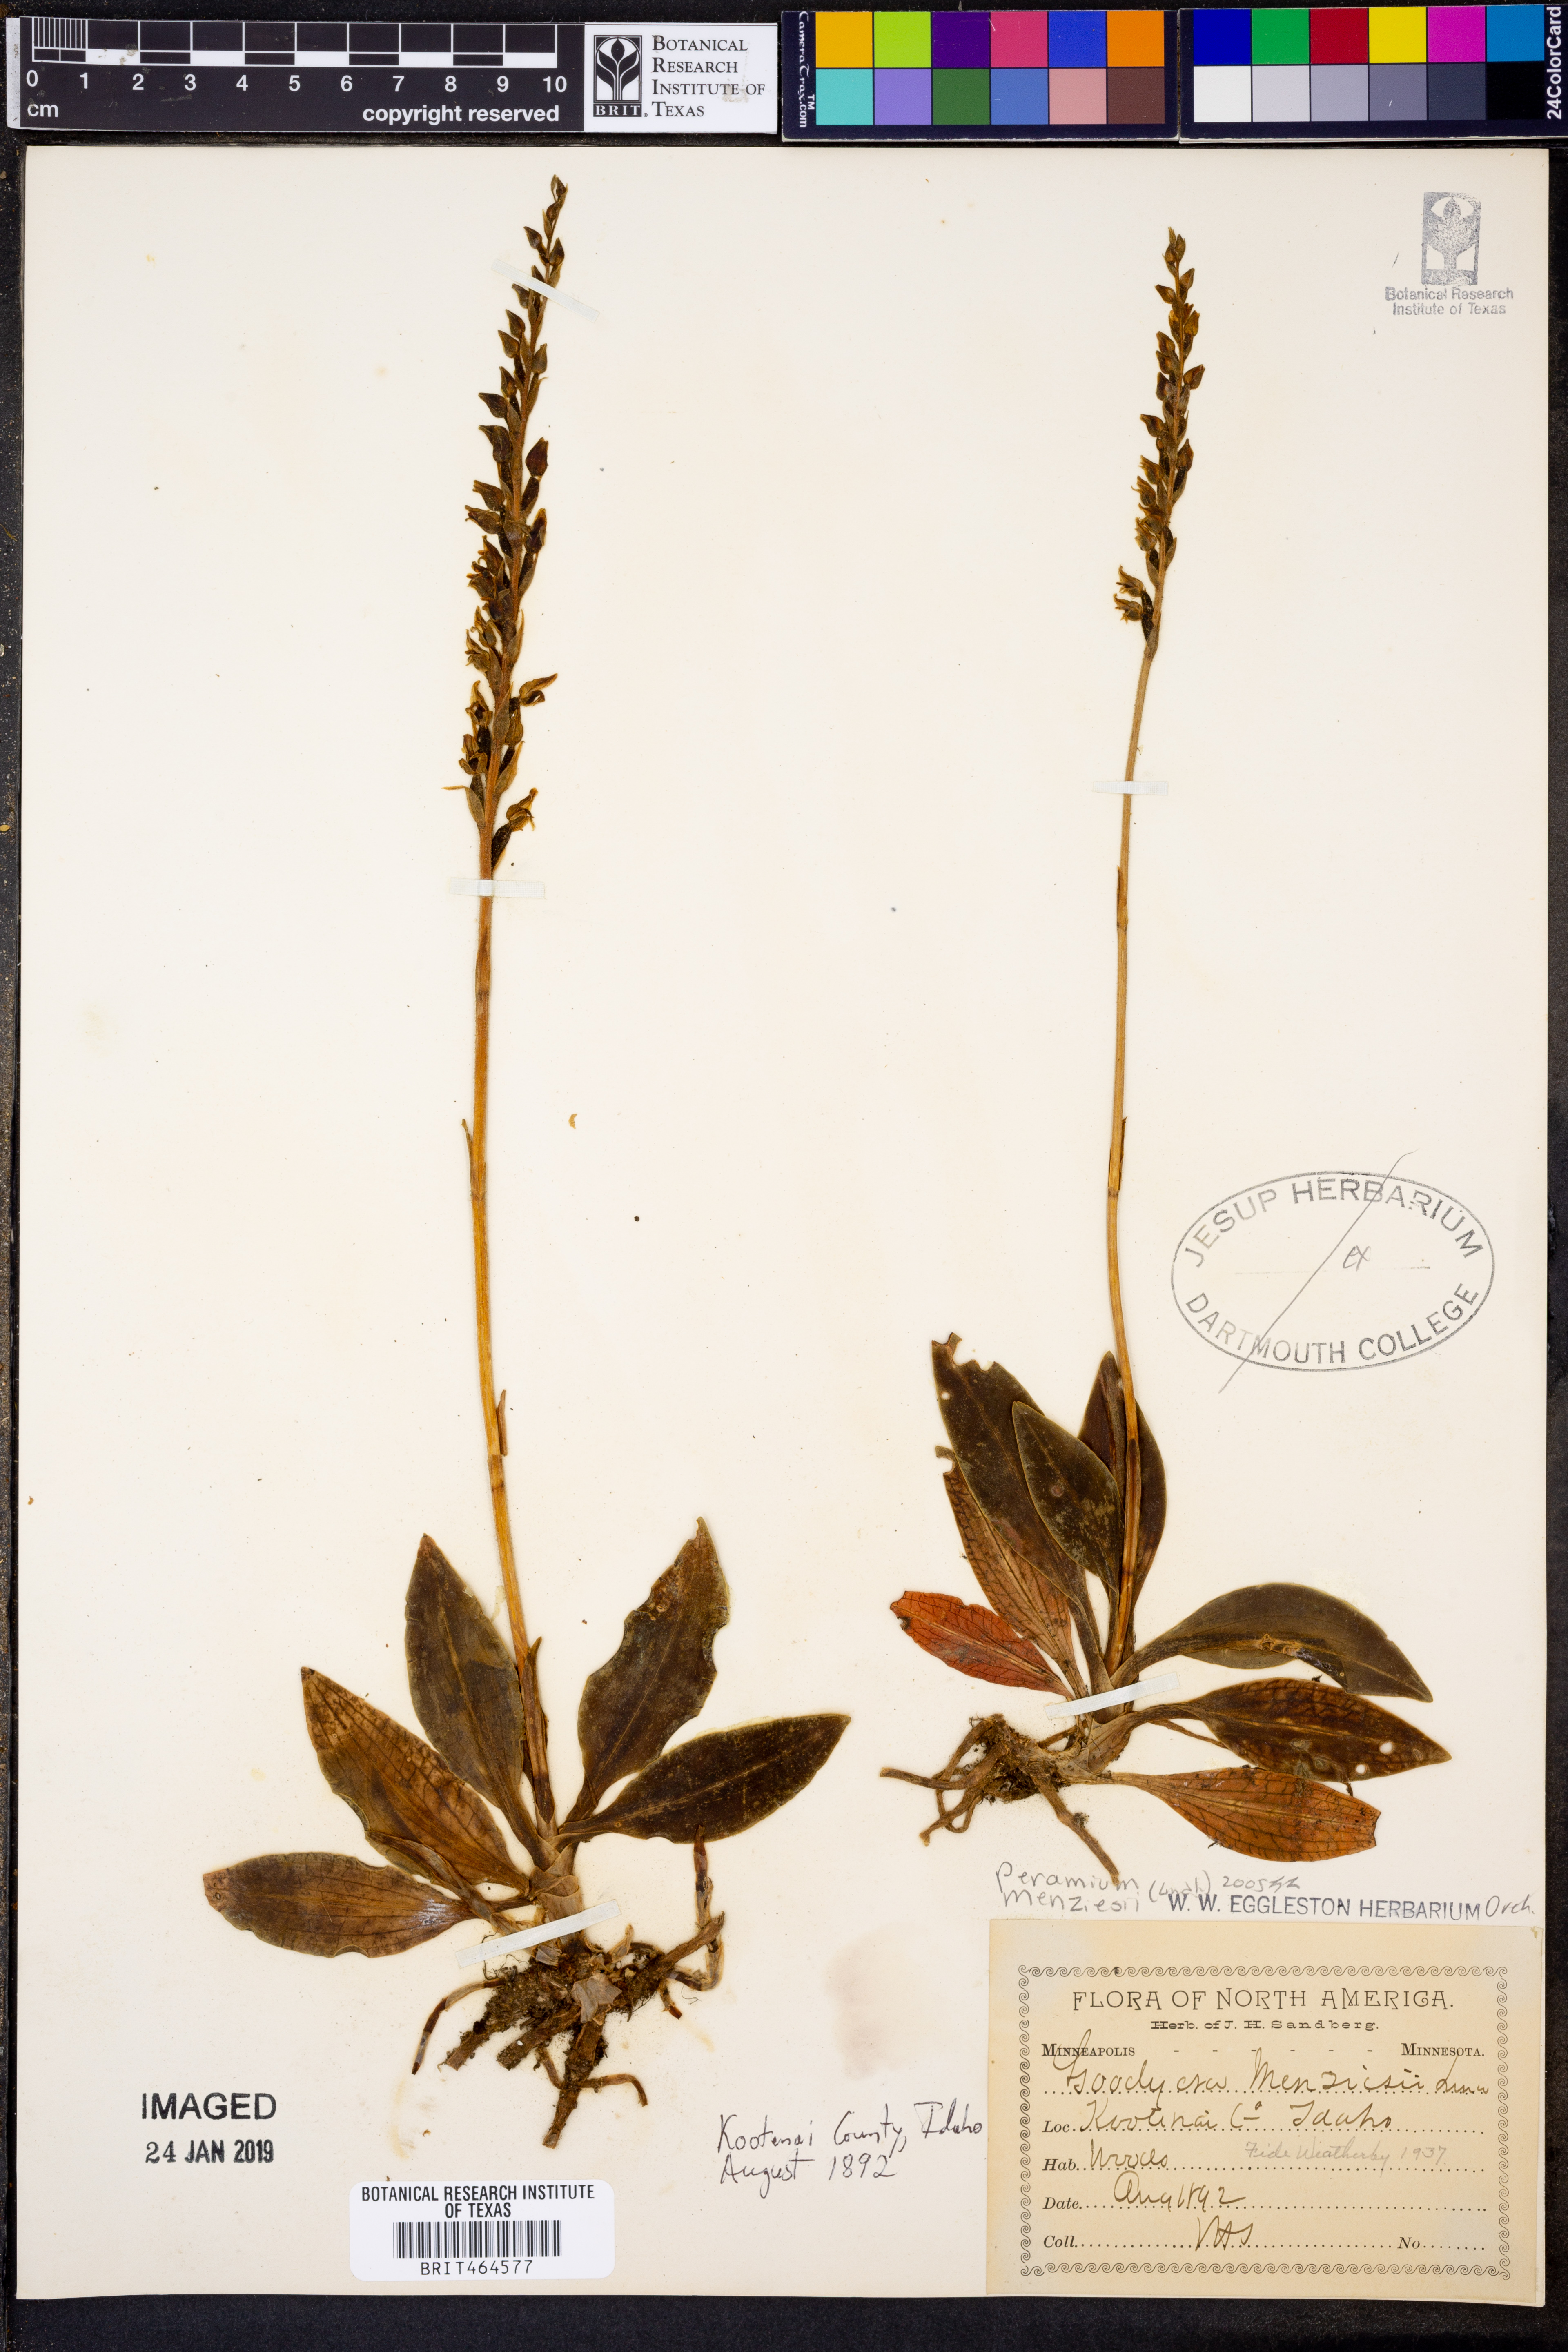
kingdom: Plantae
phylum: Tracheophyta
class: Liliopsida
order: Asparagales
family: Orchidaceae
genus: Goodyera
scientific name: Goodyera oblongifolia
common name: Giant rattlesnake-plantain
